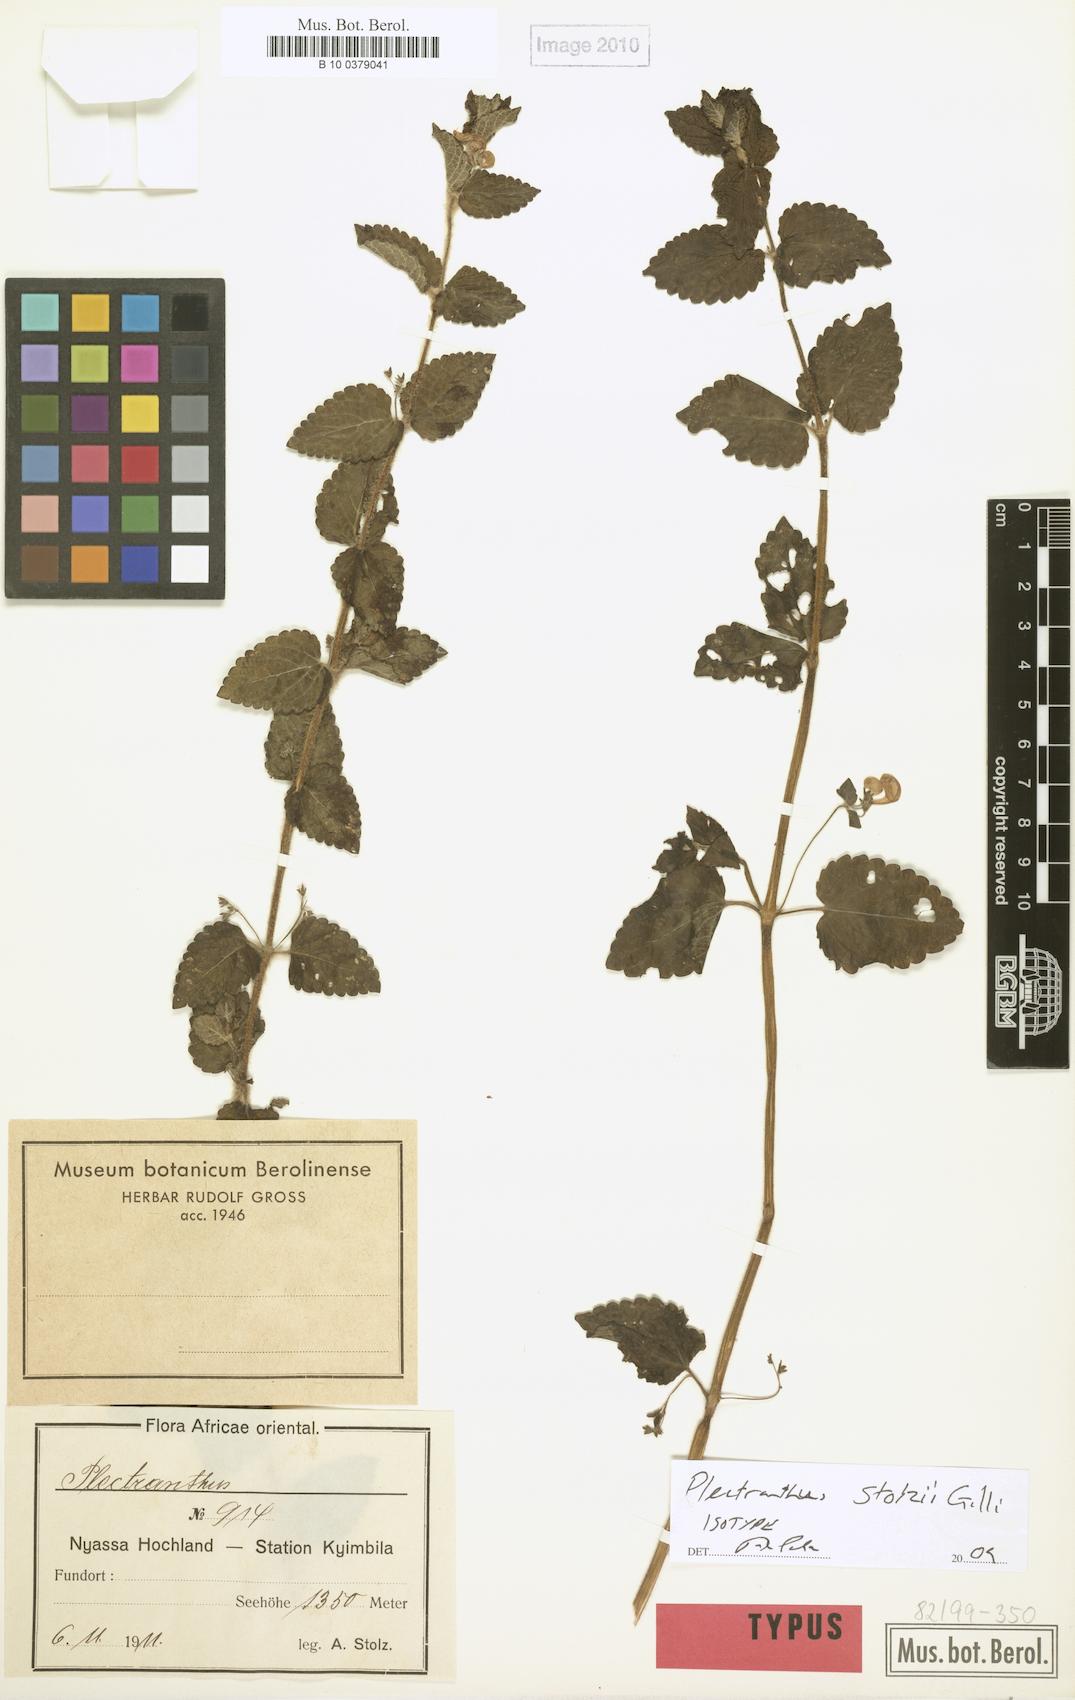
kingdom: Plantae
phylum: Tracheophyta
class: Magnoliopsida
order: Lamiales
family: Lamiaceae
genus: Equilabium
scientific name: Equilabium stolzii
